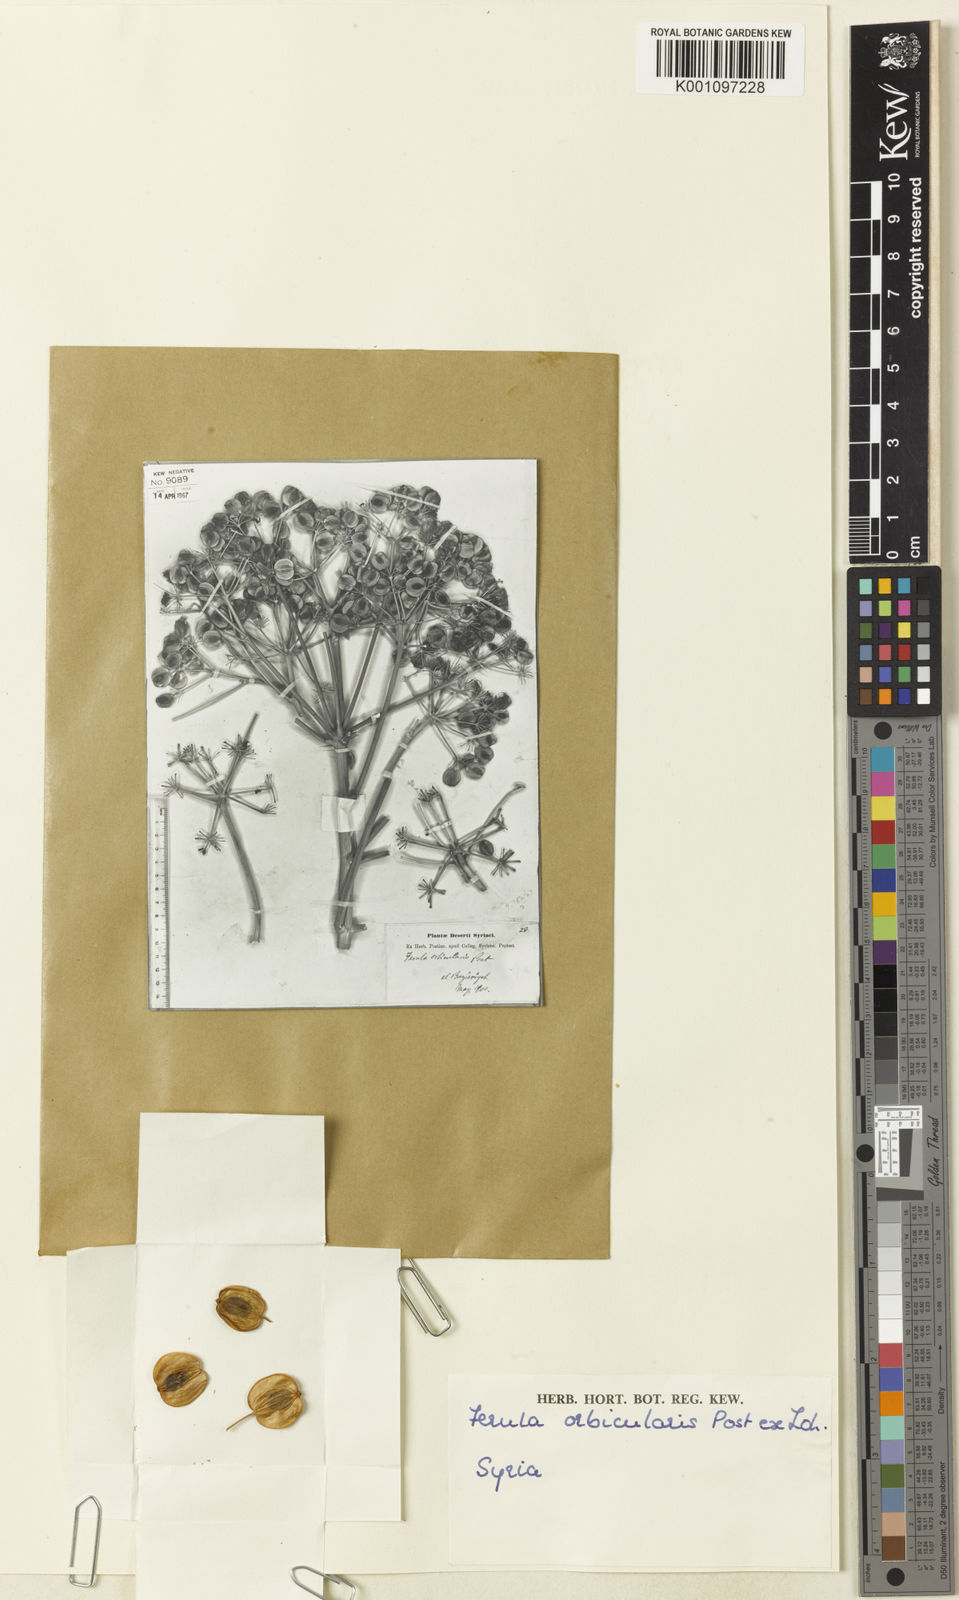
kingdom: Plantae
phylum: Tracheophyta
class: Magnoliopsida
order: Apiales
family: Apiaceae
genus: Ferula
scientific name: Ferula orbicularis
